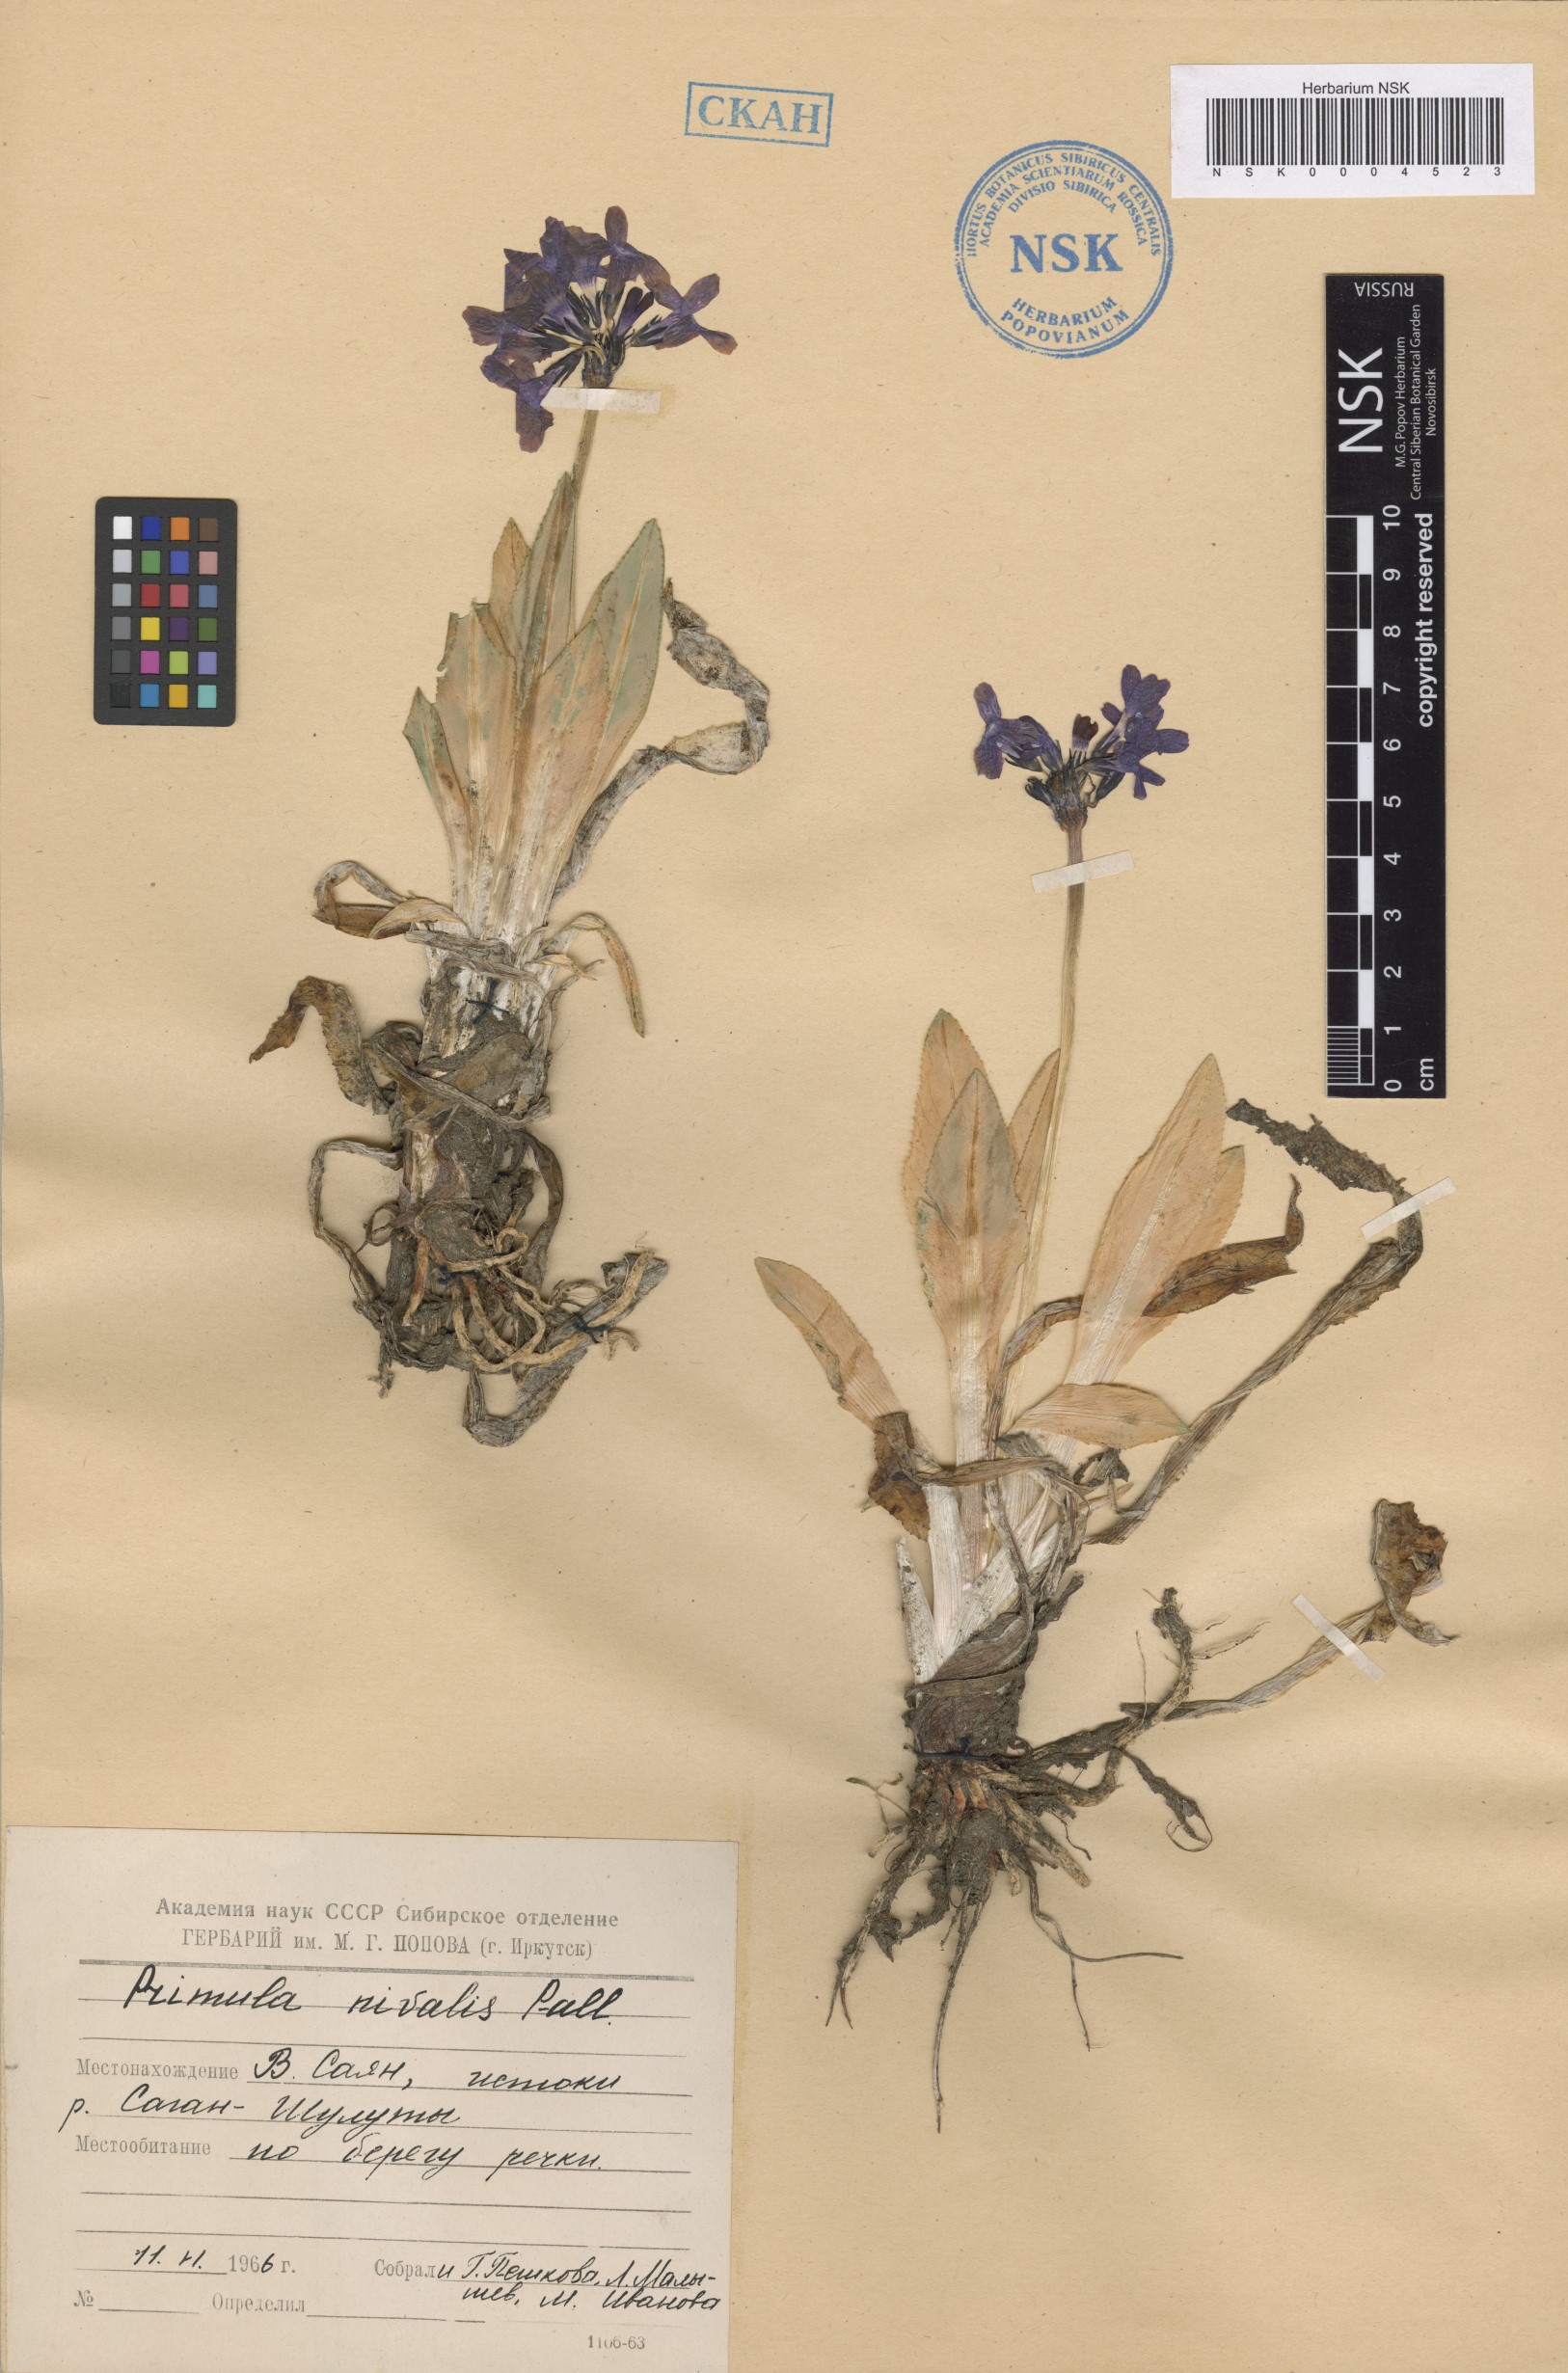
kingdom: Plantae
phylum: Tracheophyta
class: Magnoliopsida
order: Ericales
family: Primulaceae
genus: Primula
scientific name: Primula nivalis
